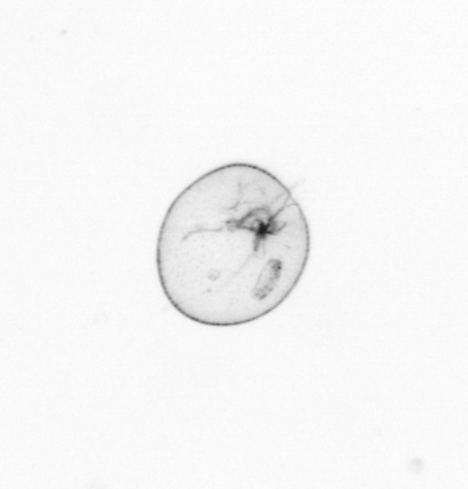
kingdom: Chromista
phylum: Myzozoa
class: Dinophyceae
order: Noctilucales
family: Noctilucaceae
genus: Noctiluca
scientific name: Noctiluca scintillans
